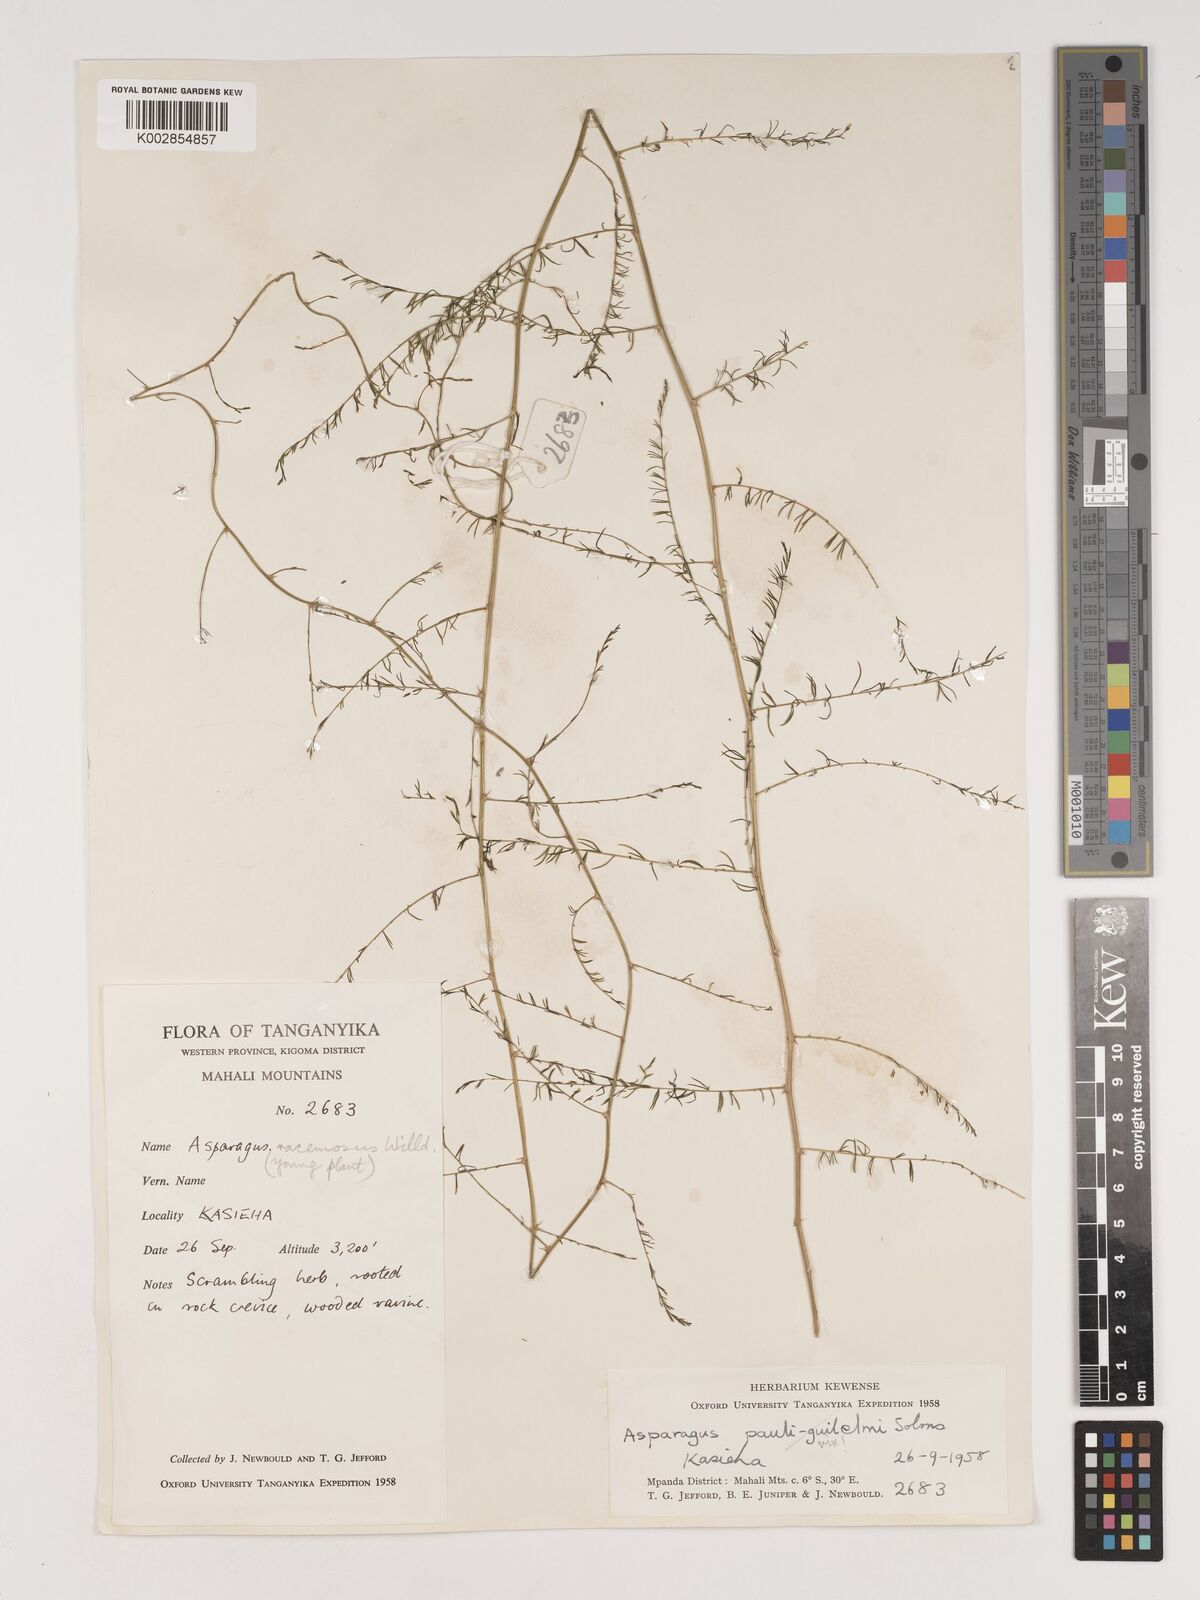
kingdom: Plantae
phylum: Tracheophyta
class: Liliopsida
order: Asparagales
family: Asparagaceae
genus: Asparagus
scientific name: Asparagus racemosus
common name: Asparagus-fern
